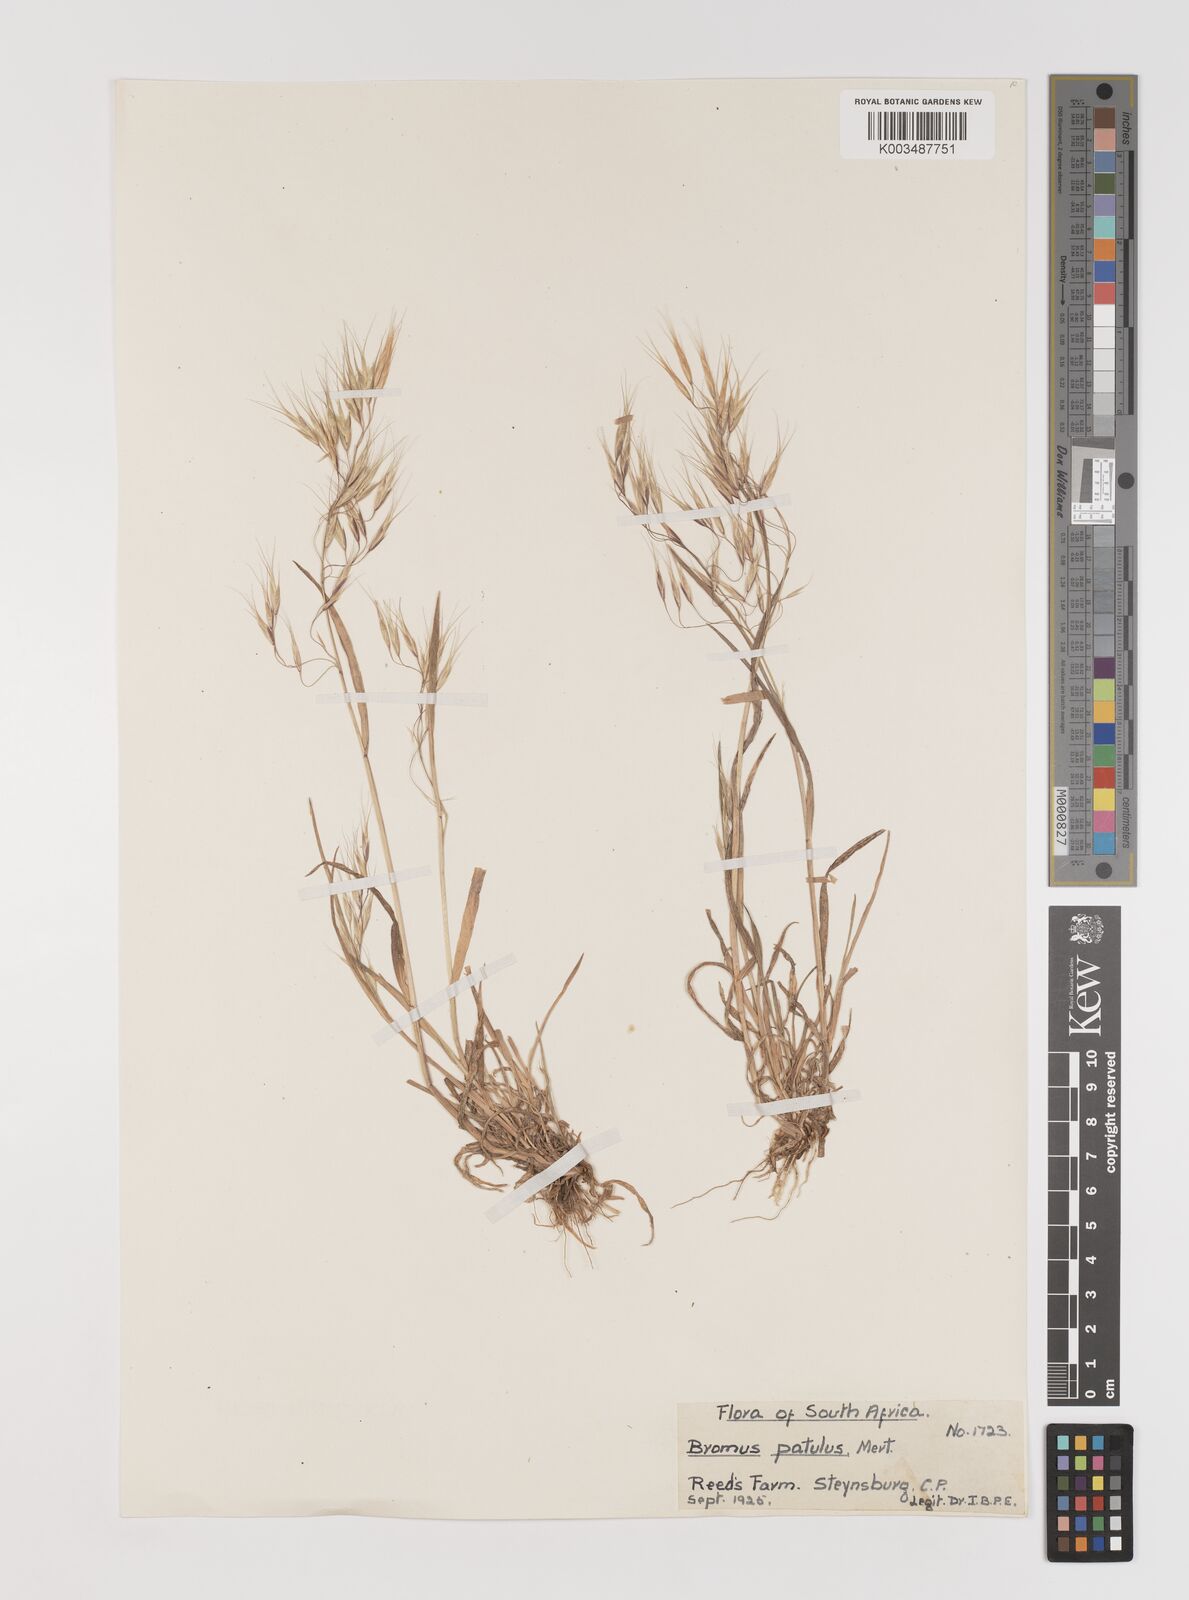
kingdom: Plantae
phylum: Tracheophyta
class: Liliopsida
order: Poales
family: Poaceae
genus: Bromus
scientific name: Bromus pectinatus
